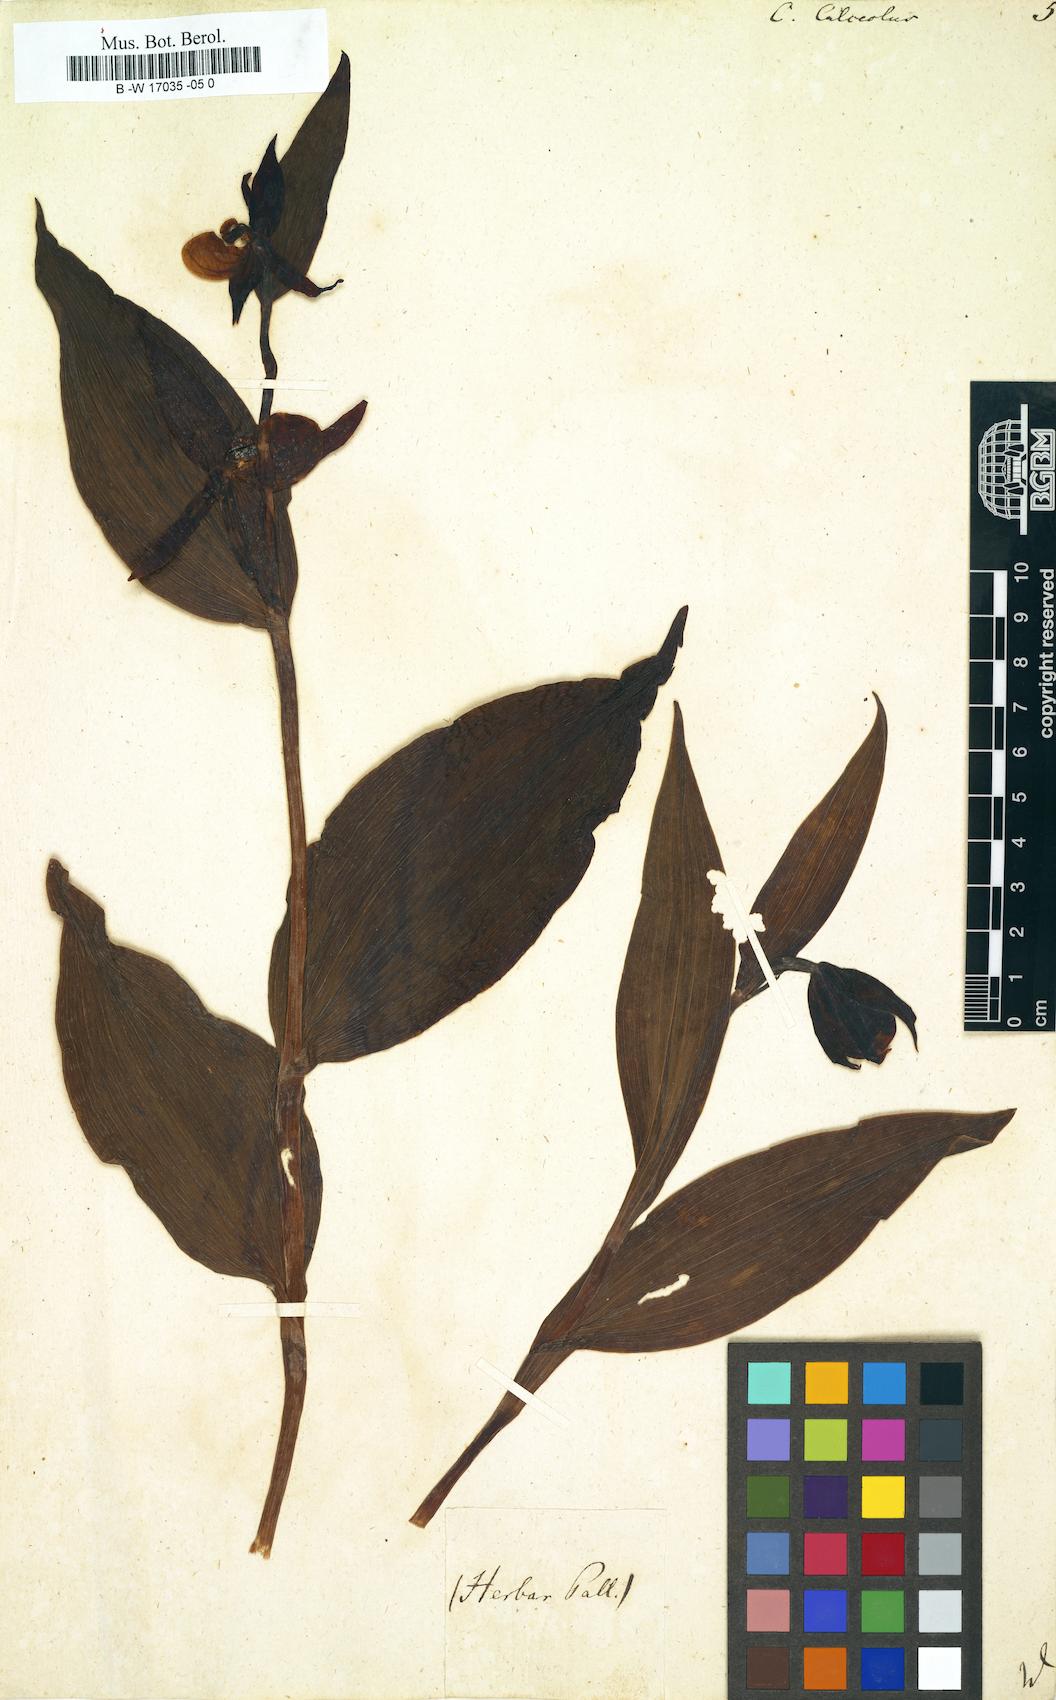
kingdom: Plantae
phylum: Tracheophyta
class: Liliopsida
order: Asparagales
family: Orchidaceae
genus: Cypripedium
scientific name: Cypripedium calceolus
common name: Lady's-slipper
